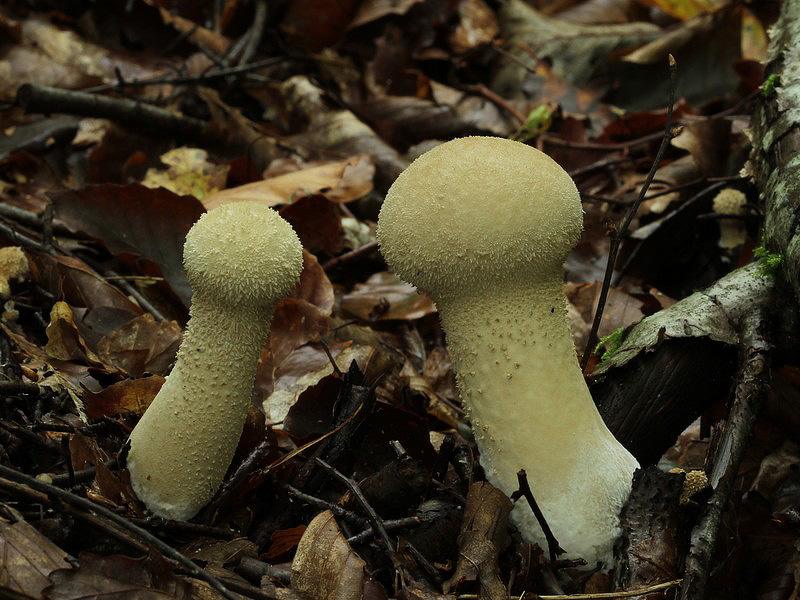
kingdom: Fungi
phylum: Basidiomycota
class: Agaricomycetes
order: Agaricales
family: Lycoperdaceae
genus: Lycoperdon
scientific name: Lycoperdon excipuliforme
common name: højstokket støvbold
